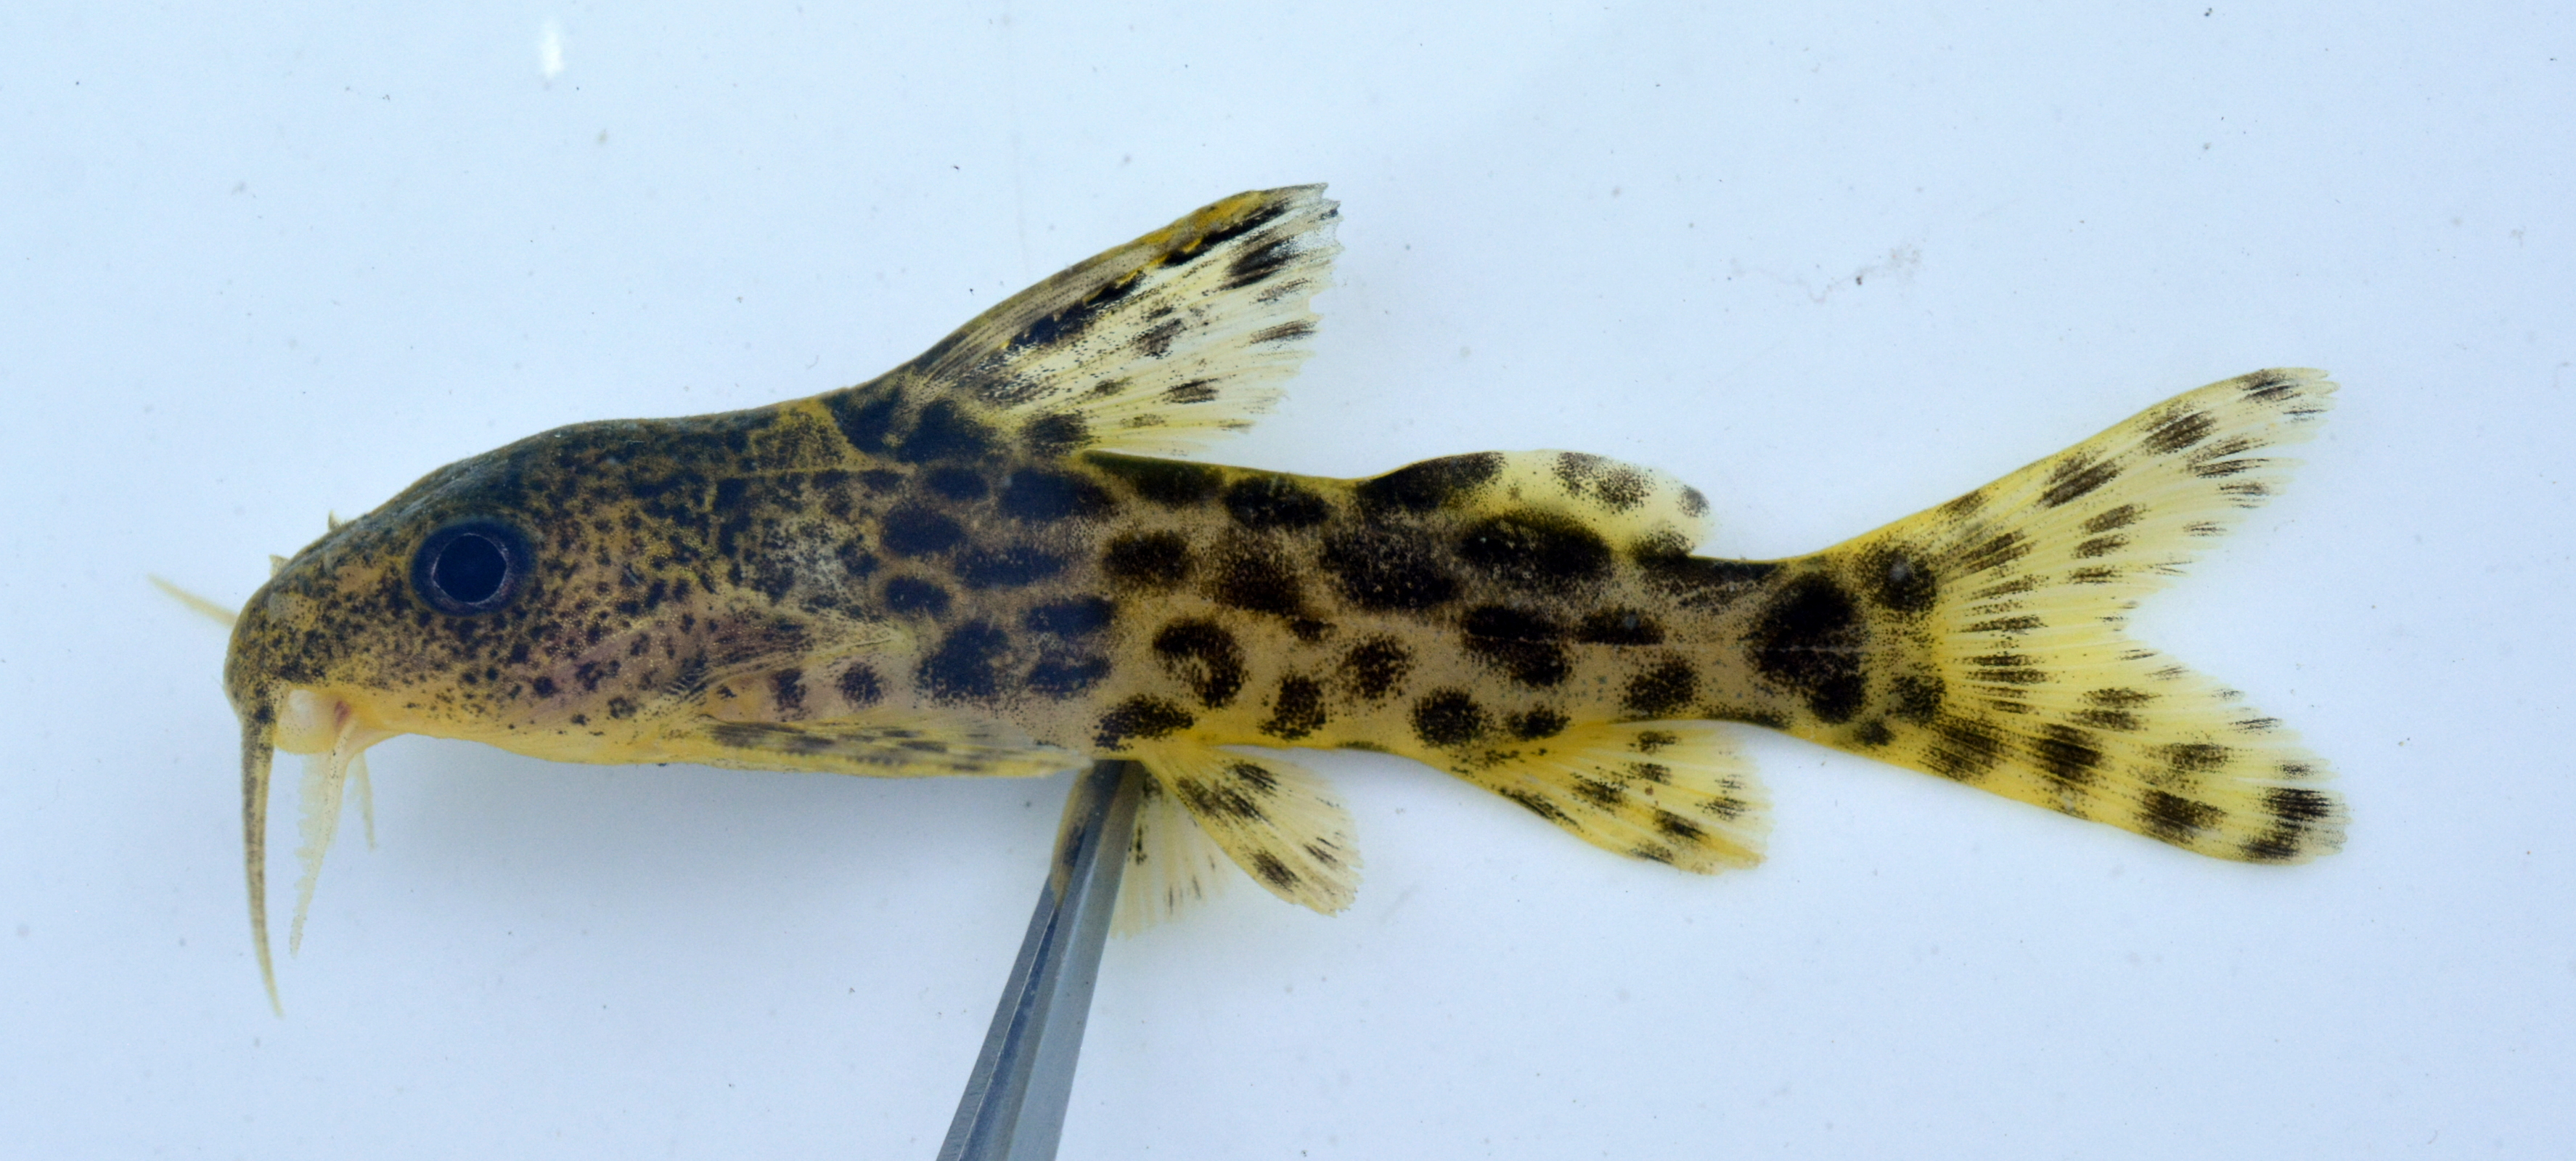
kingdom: Animalia
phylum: Chordata
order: Siluriformes
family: Mochokidae
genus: Synodontis
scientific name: Synodontis macrostigma
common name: Largespot squeaker
